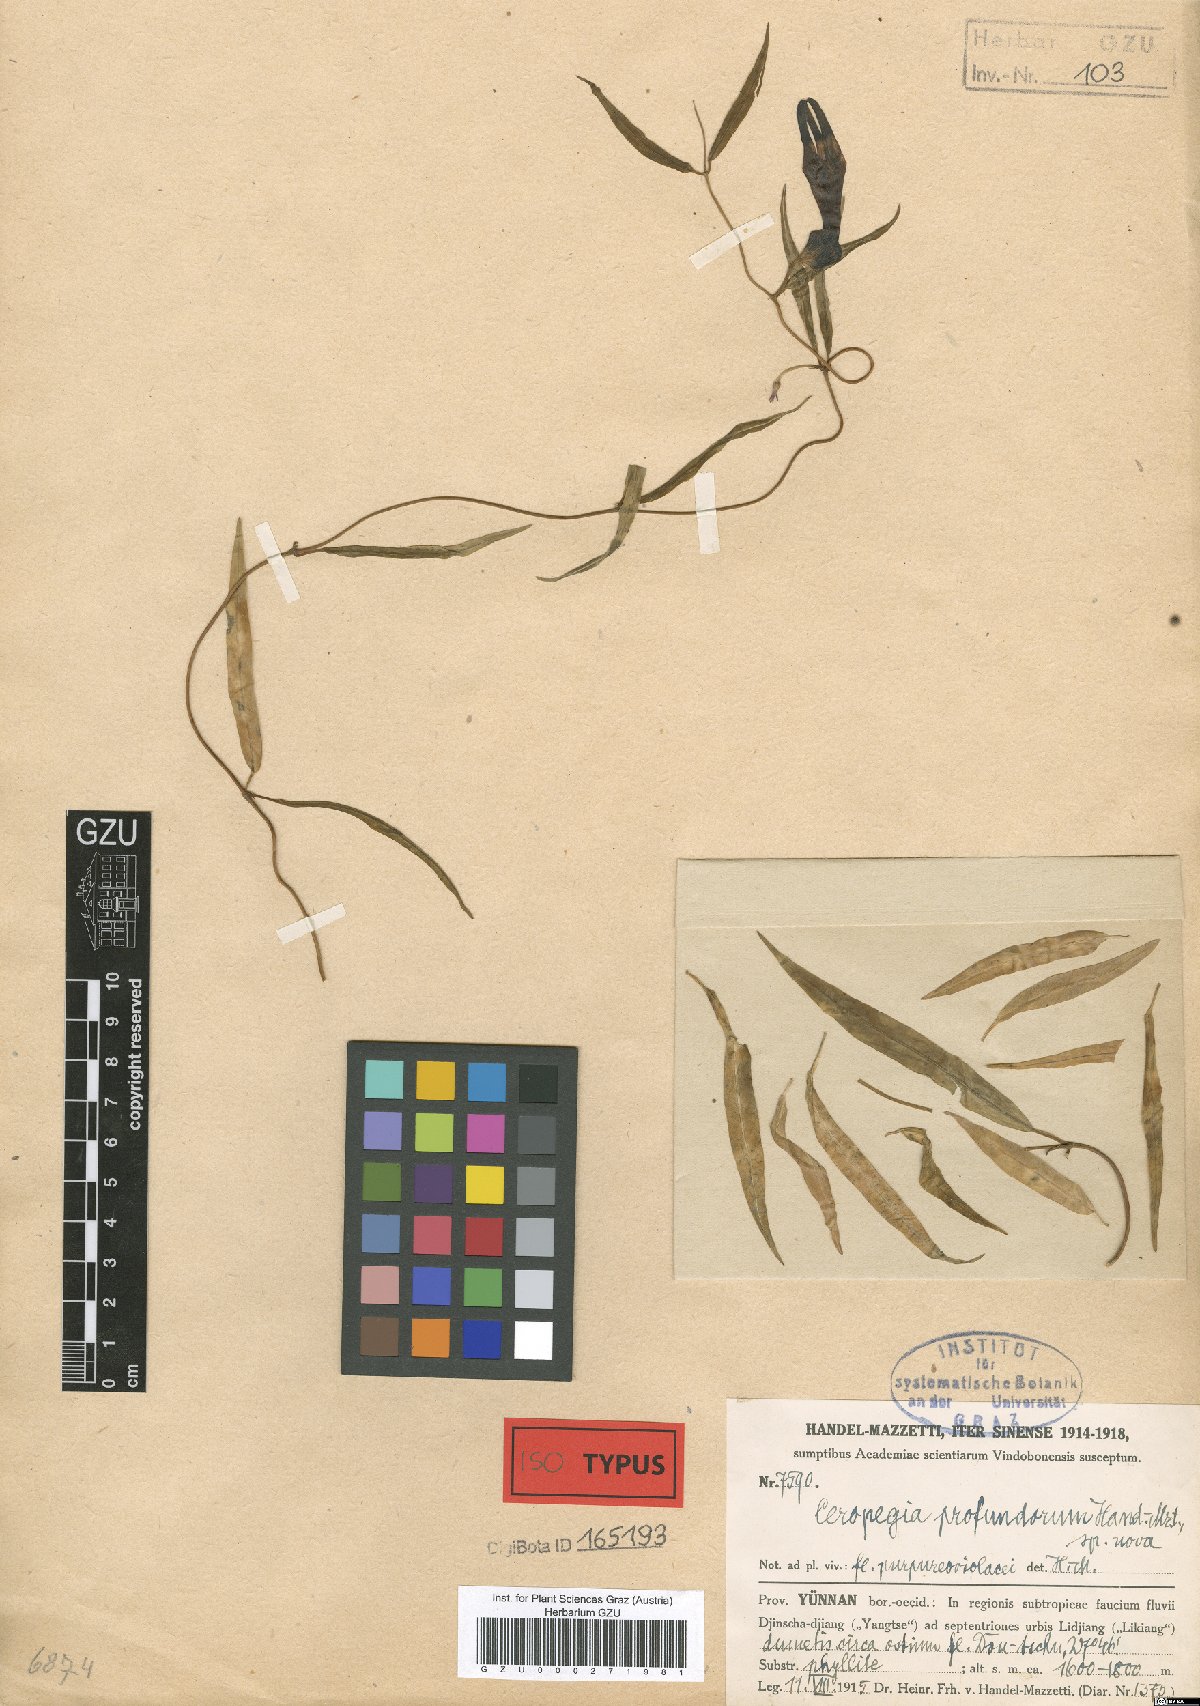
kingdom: Plantae
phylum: Tracheophyta
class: Magnoliopsida
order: Gentianales
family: Apocynaceae
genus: Ceropegia
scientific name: Ceropegia dolichophylla
